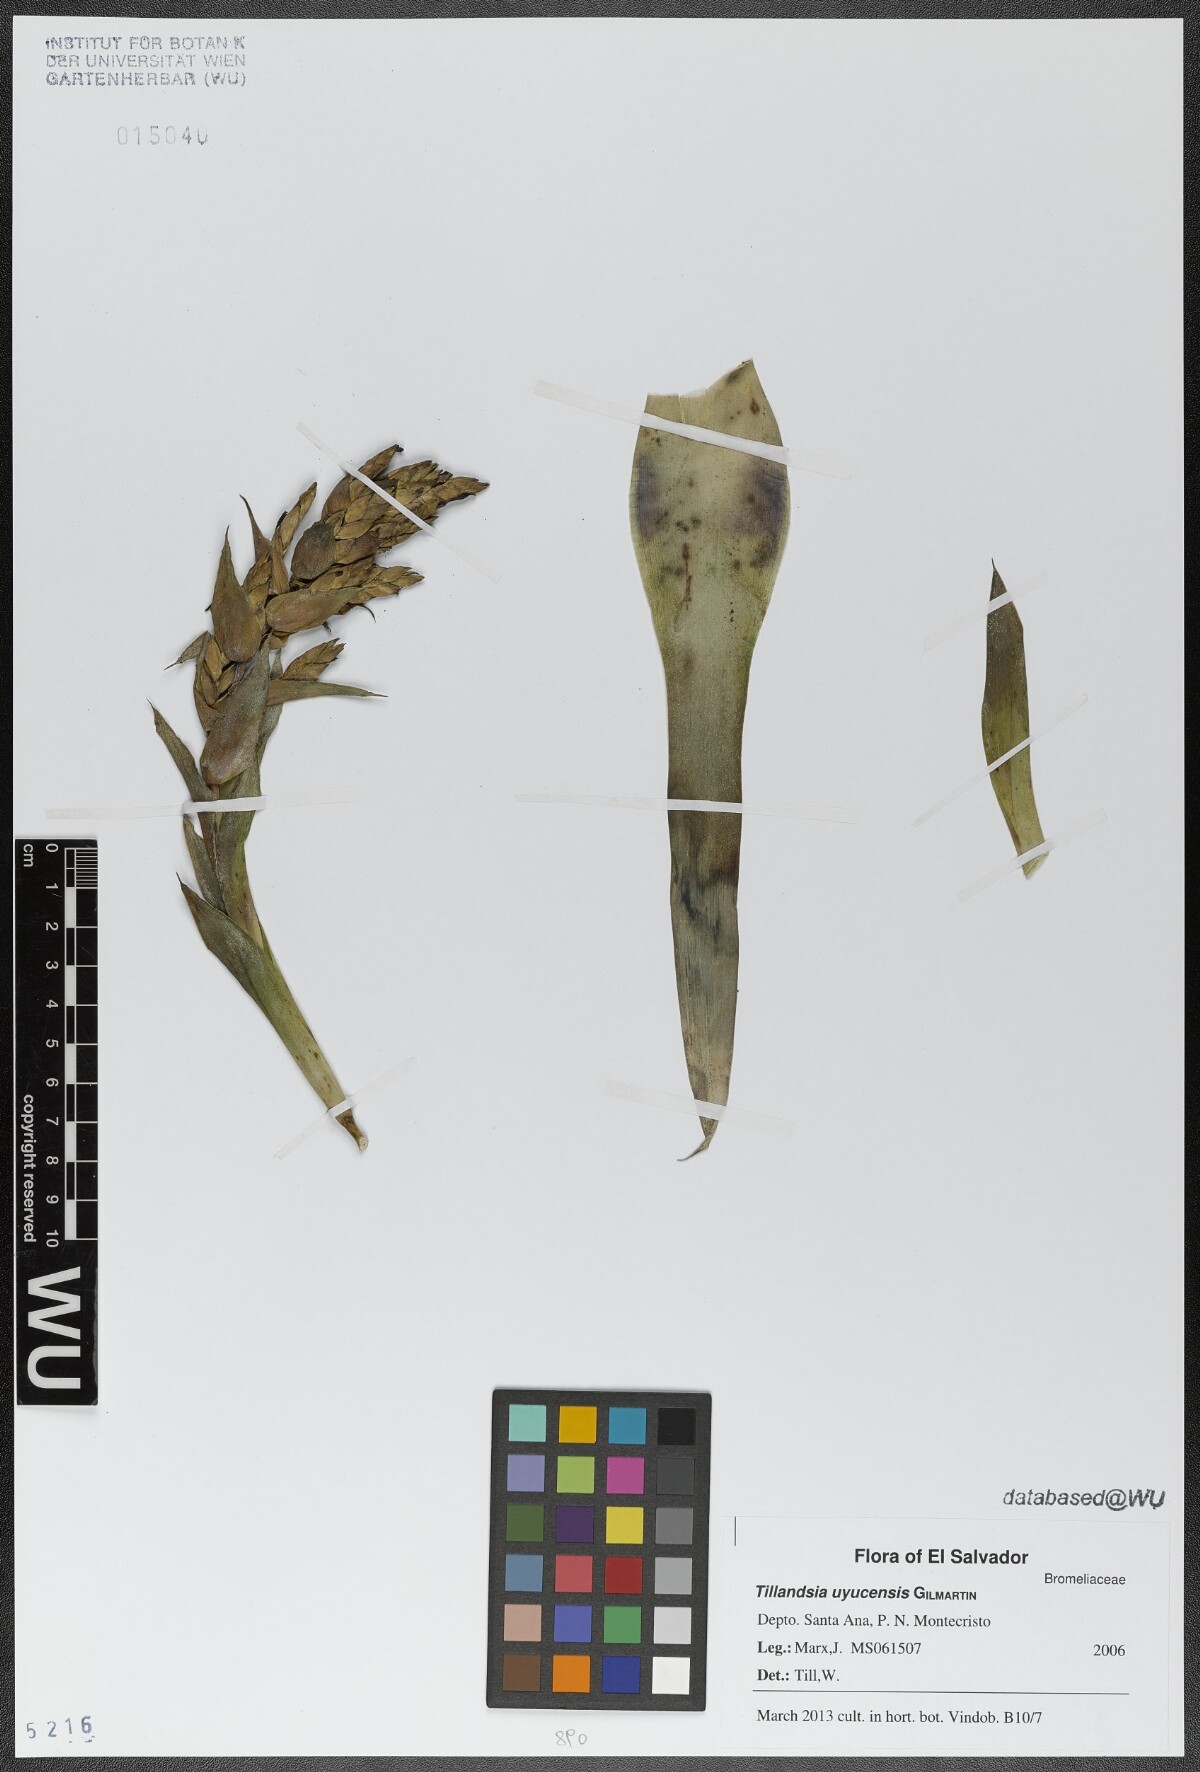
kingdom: Plantae
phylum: Tracheophyta
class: Liliopsida
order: Poales
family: Bromeliaceae
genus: Tillandsia
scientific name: Tillandsia guatemalensis
